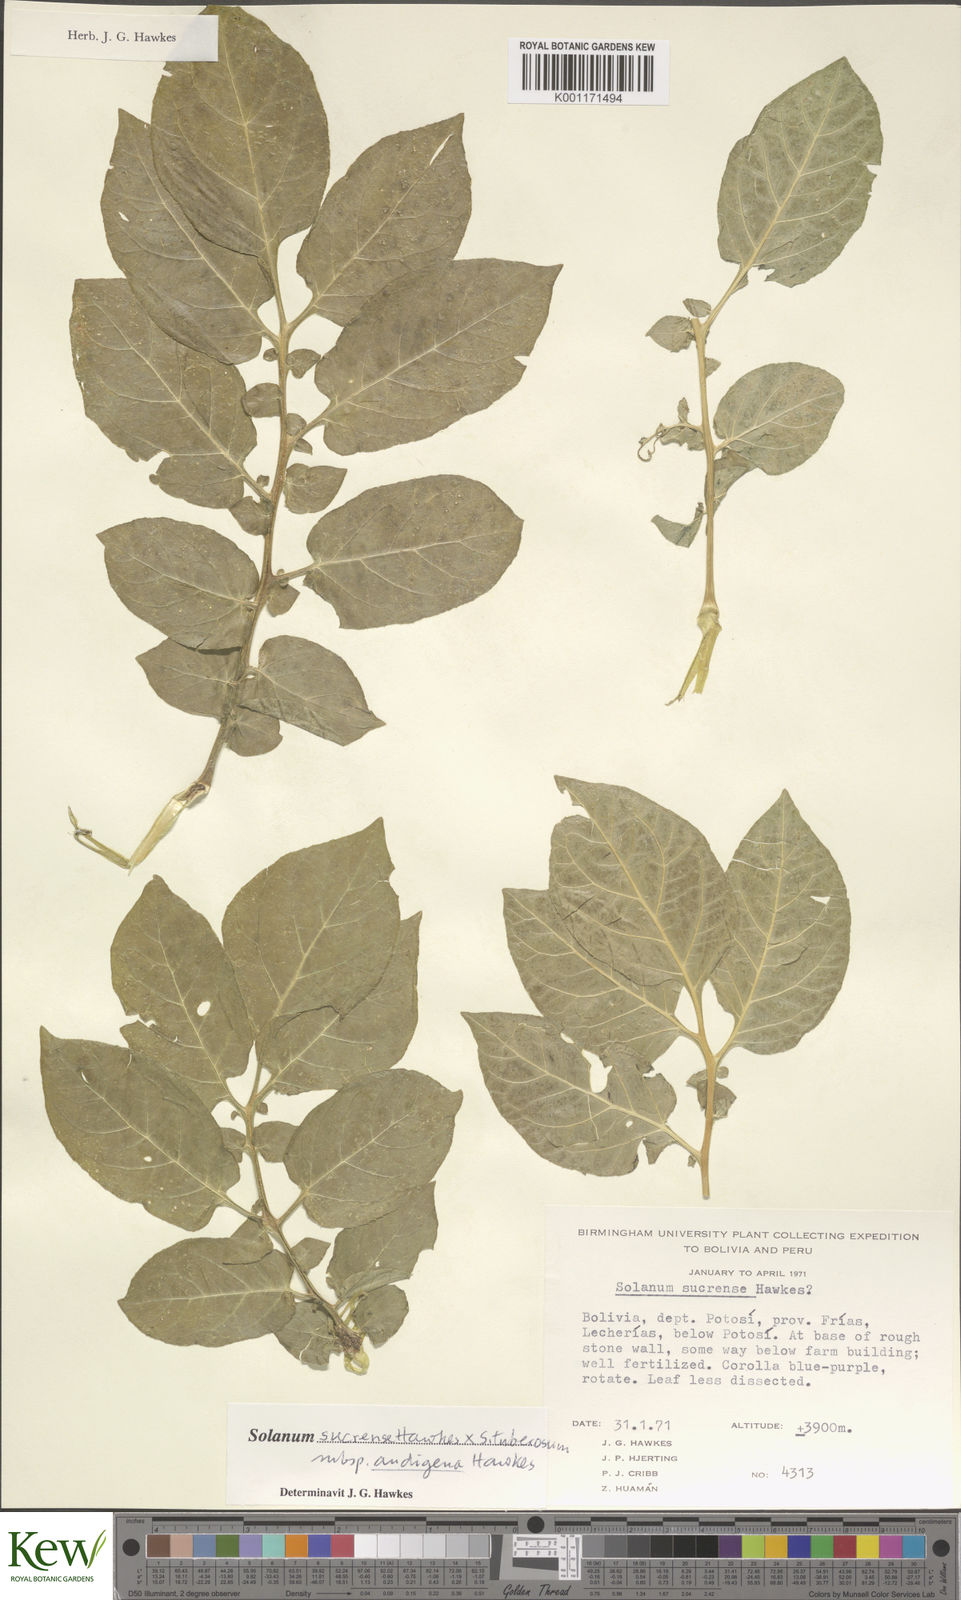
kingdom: Plantae
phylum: Tracheophyta
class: Magnoliopsida
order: Solanales
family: Solanaceae
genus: Solanum
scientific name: Solanum tuberosum
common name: Potato
